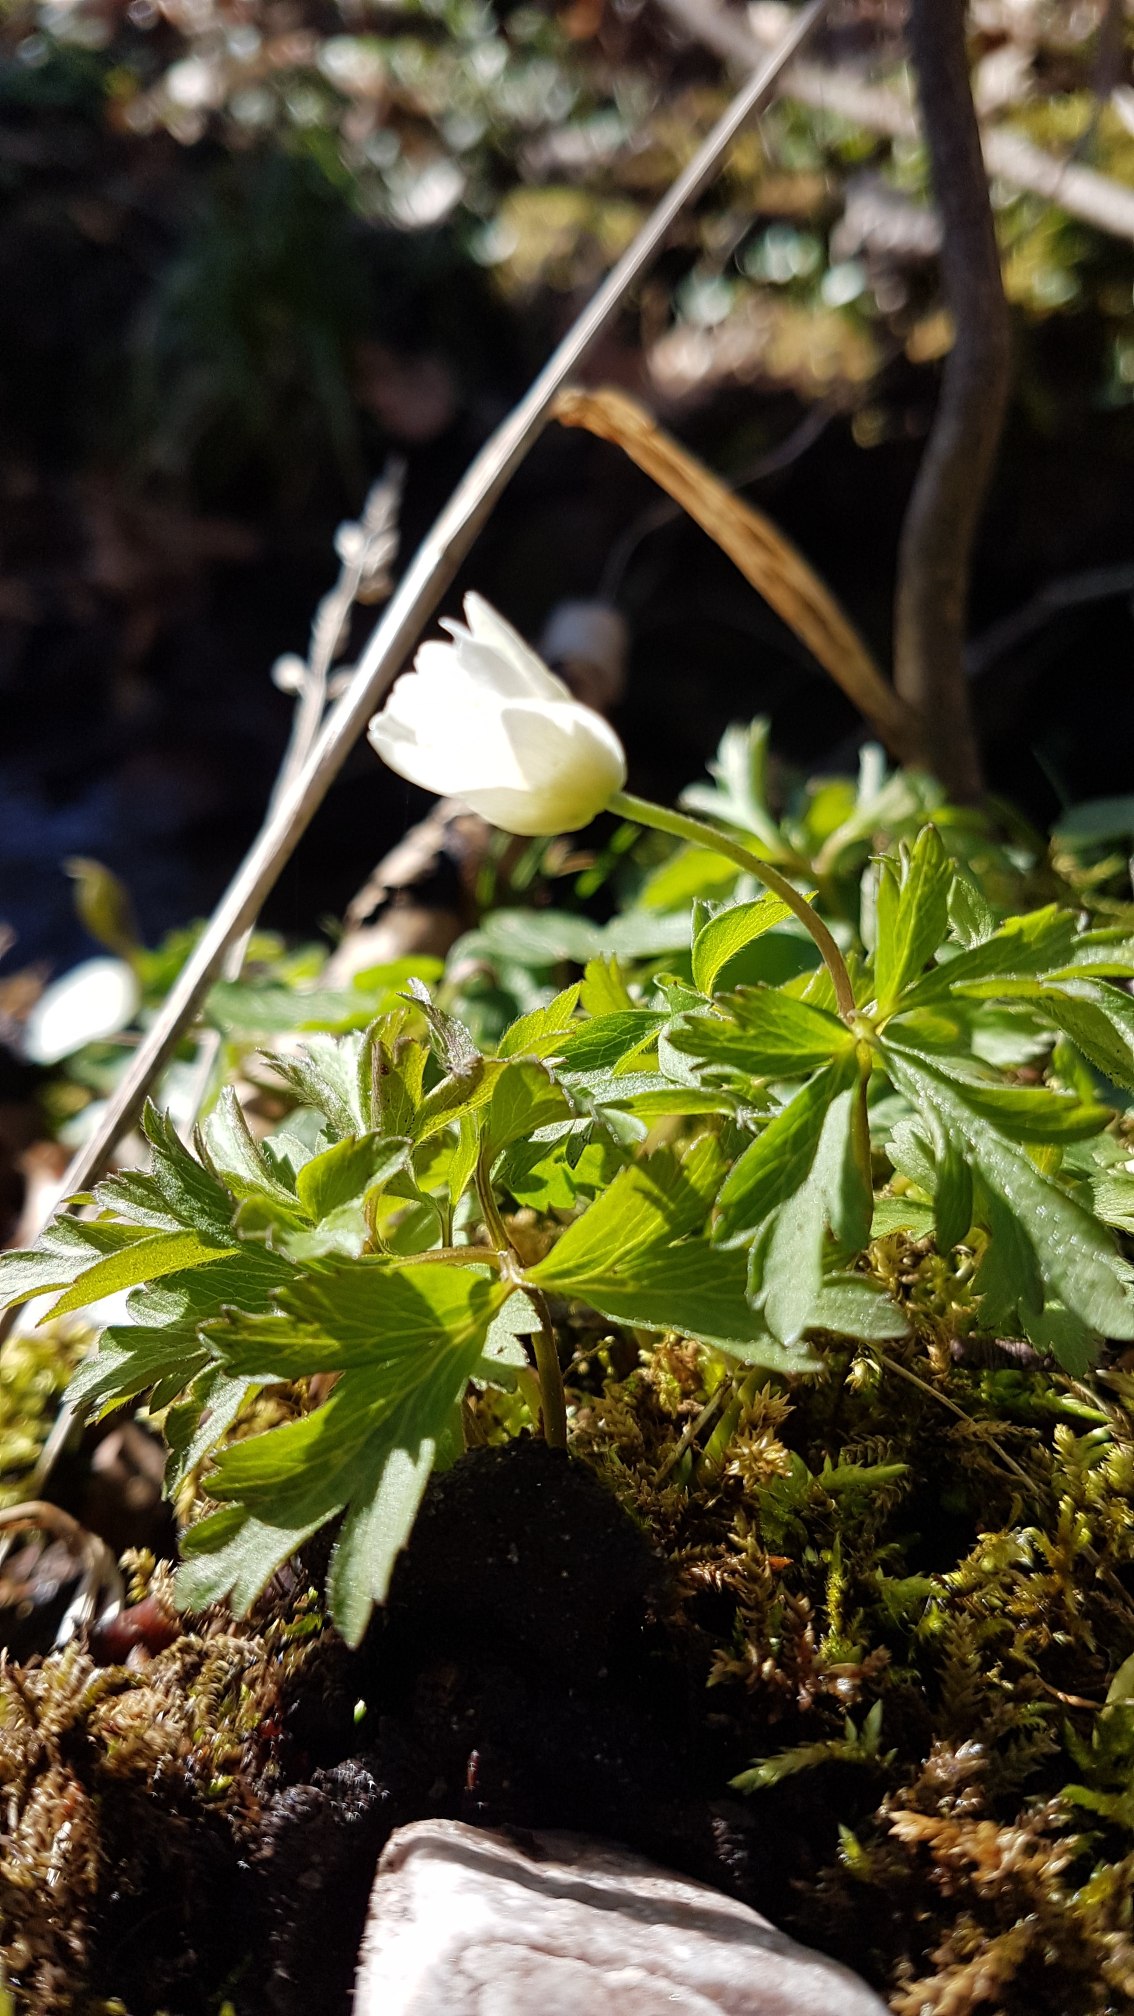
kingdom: Plantae
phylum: Tracheophyta
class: Magnoliopsida
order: Ranunculales
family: Ranunculaceae
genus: Anemone
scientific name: Anemone nemorosa
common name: Hvid anemone
